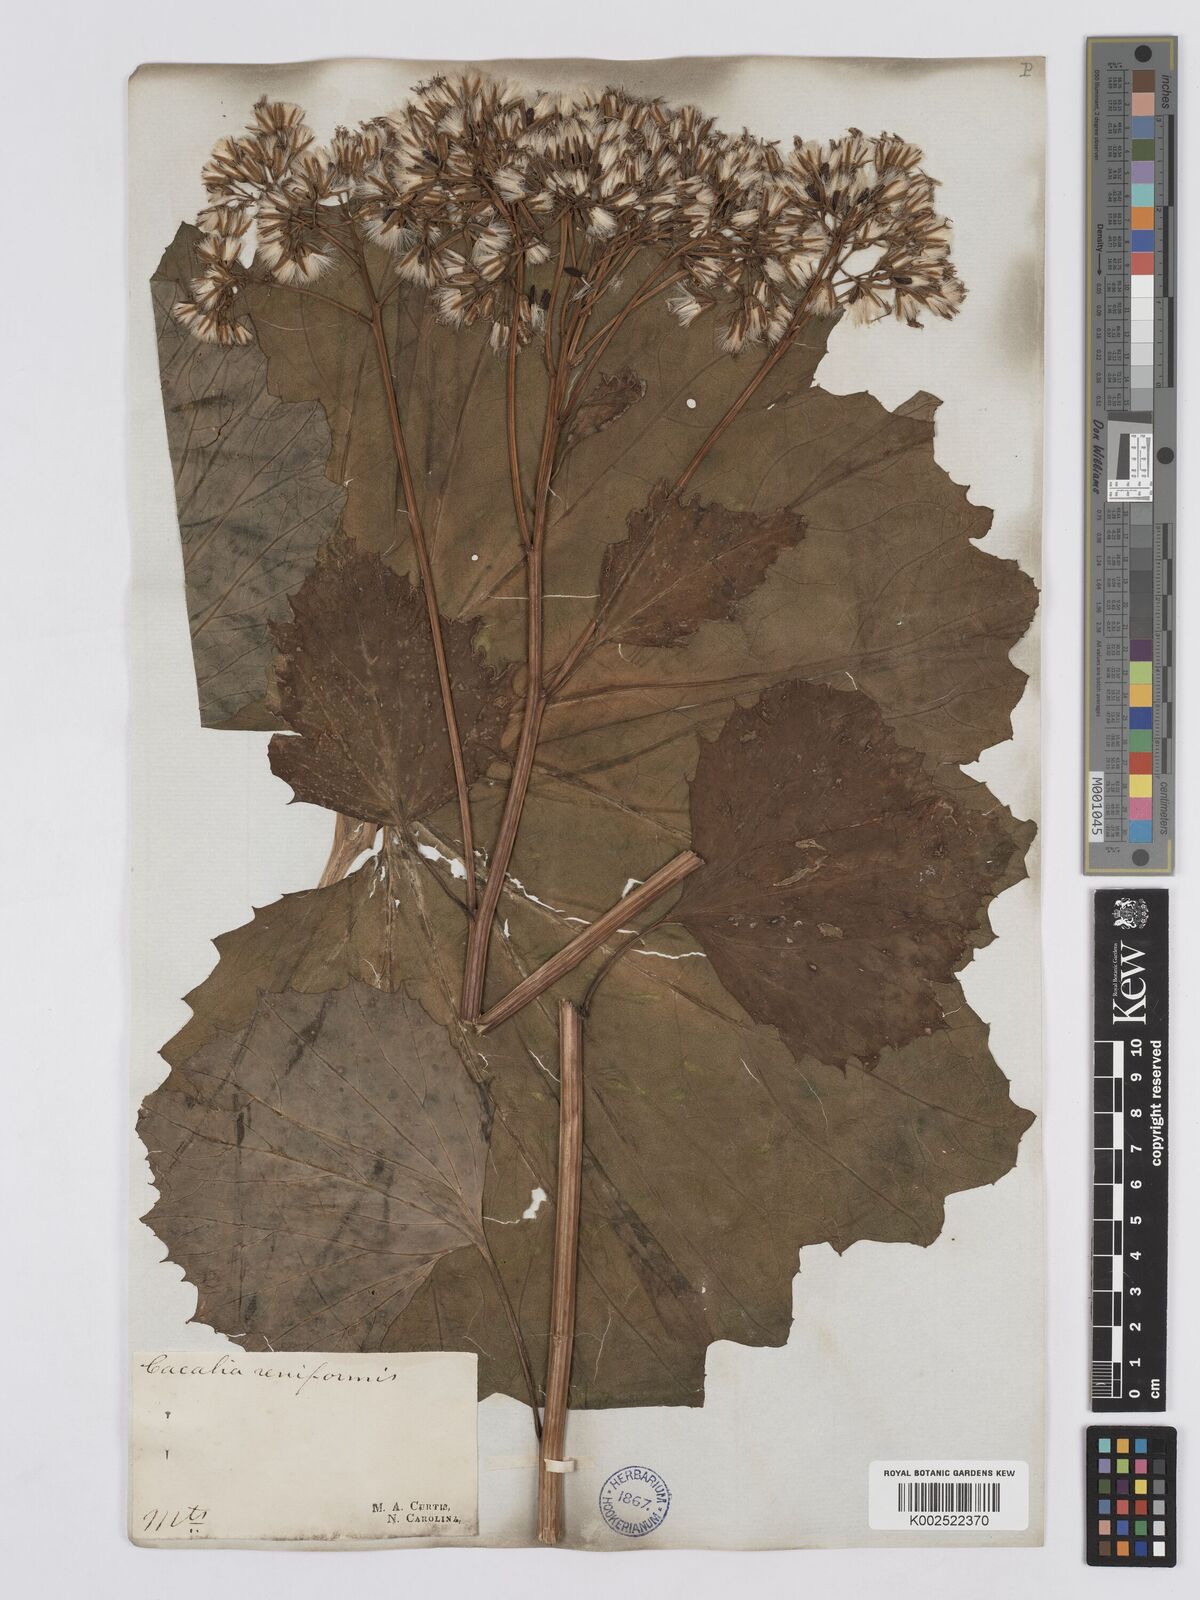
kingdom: Plantae
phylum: Tracheophyta
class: Magnoliopsida
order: Asterales
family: Asteraceae
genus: Arnoglossum
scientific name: Arnoglossum diversifolium
